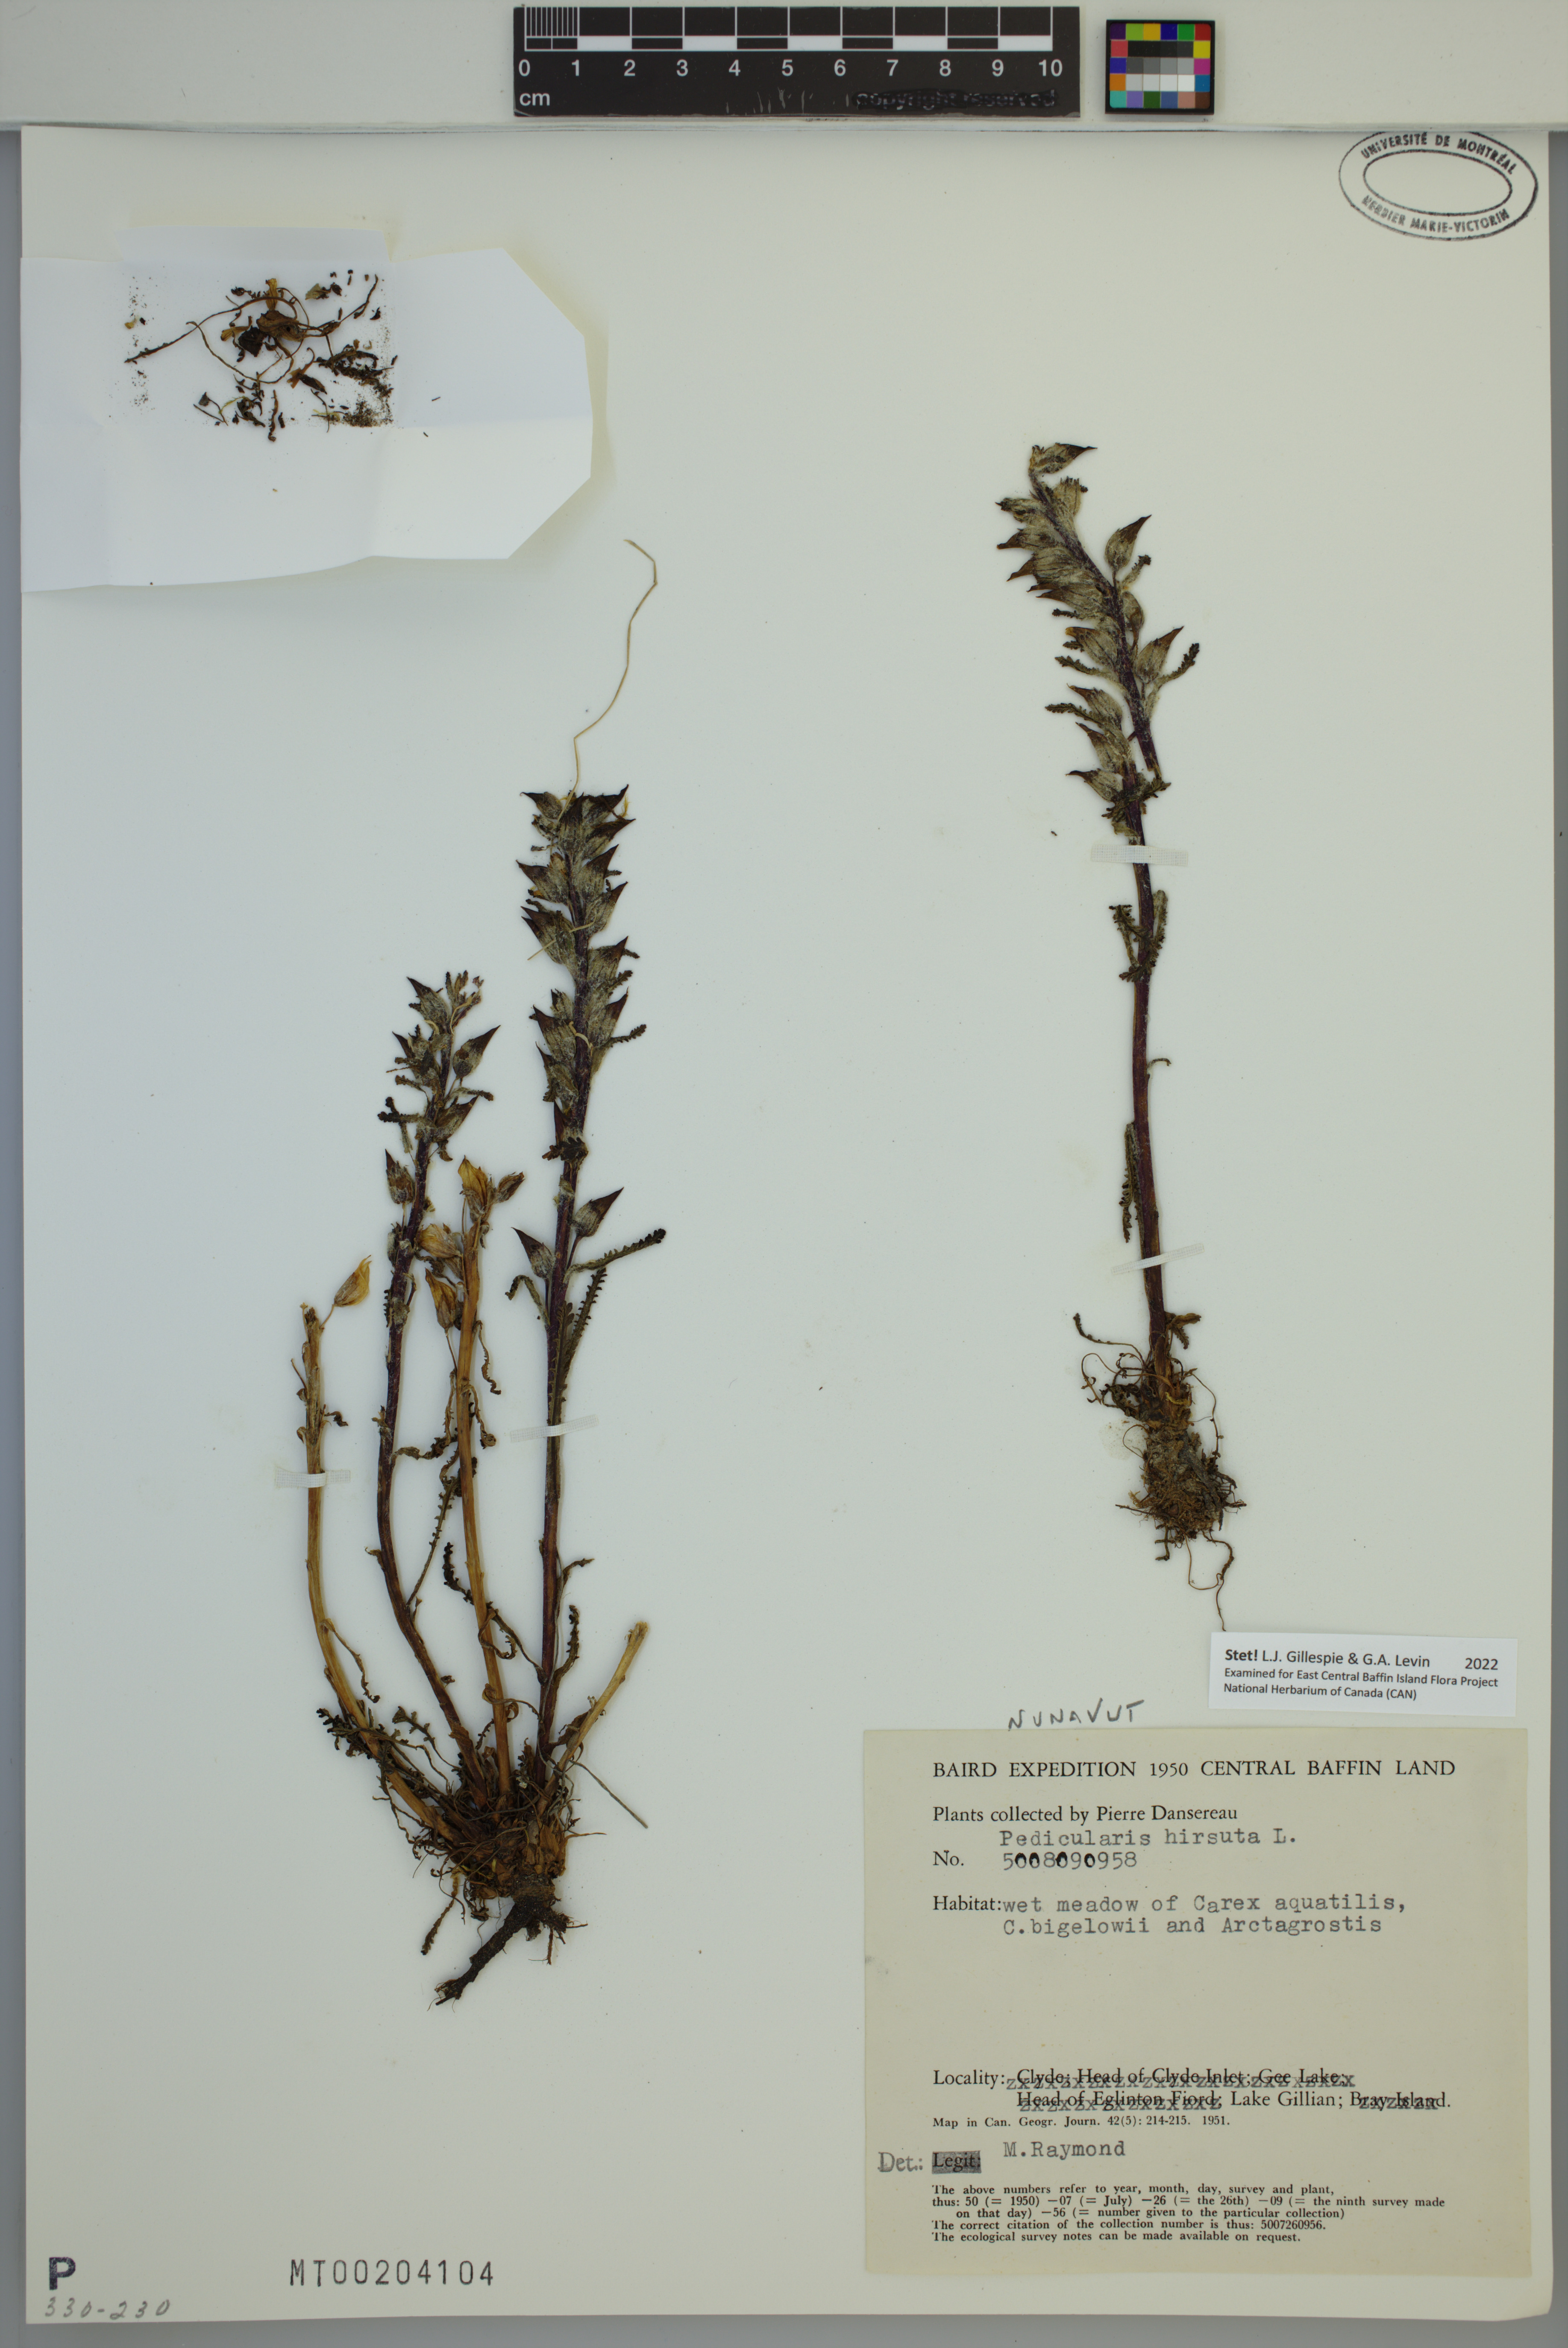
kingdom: Plantae
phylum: Tracheophyta
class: Magnoliopsida
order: Lamiales
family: Orobanchaceae
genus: Pedicularis
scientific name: Pedicularis hirsuta
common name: Hairy lousewort
